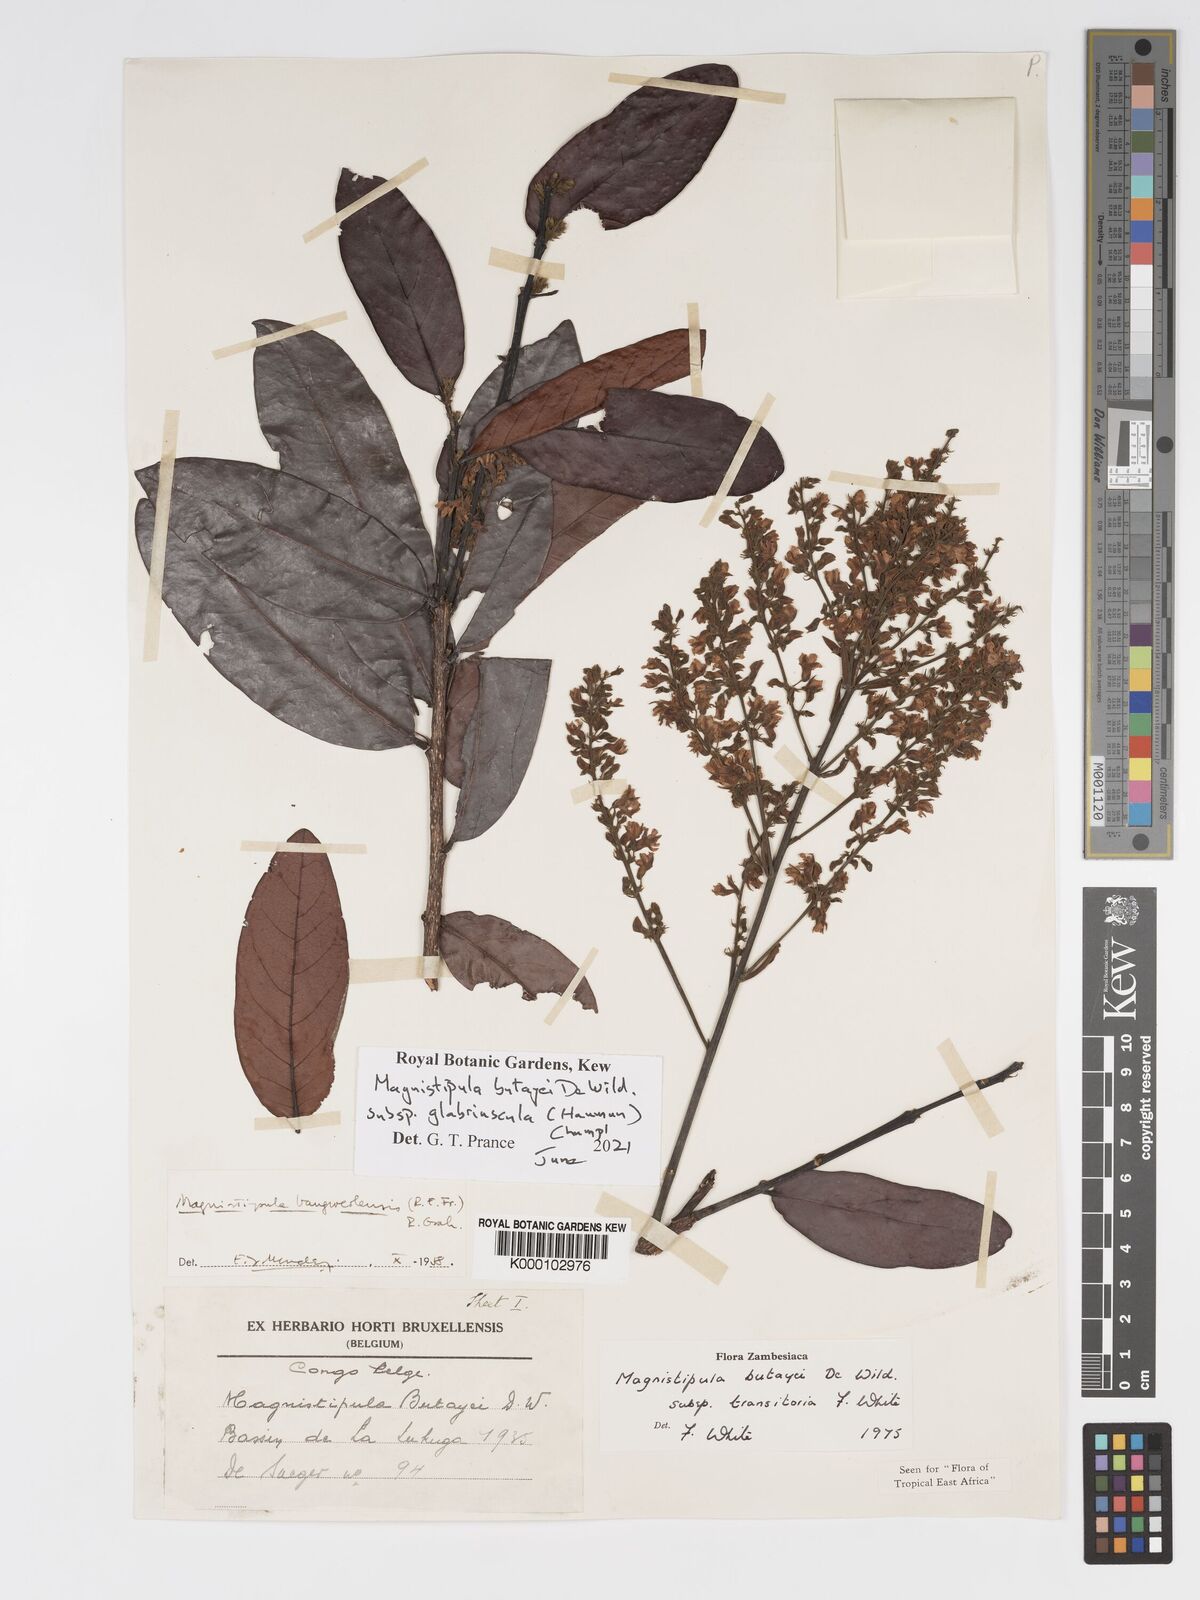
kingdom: Plantae
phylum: Tracheophyta
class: Magnoliopsida
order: Malpighiales
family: Chrysobalanaceae
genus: Magnistipula
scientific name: Magnistipula butayei
